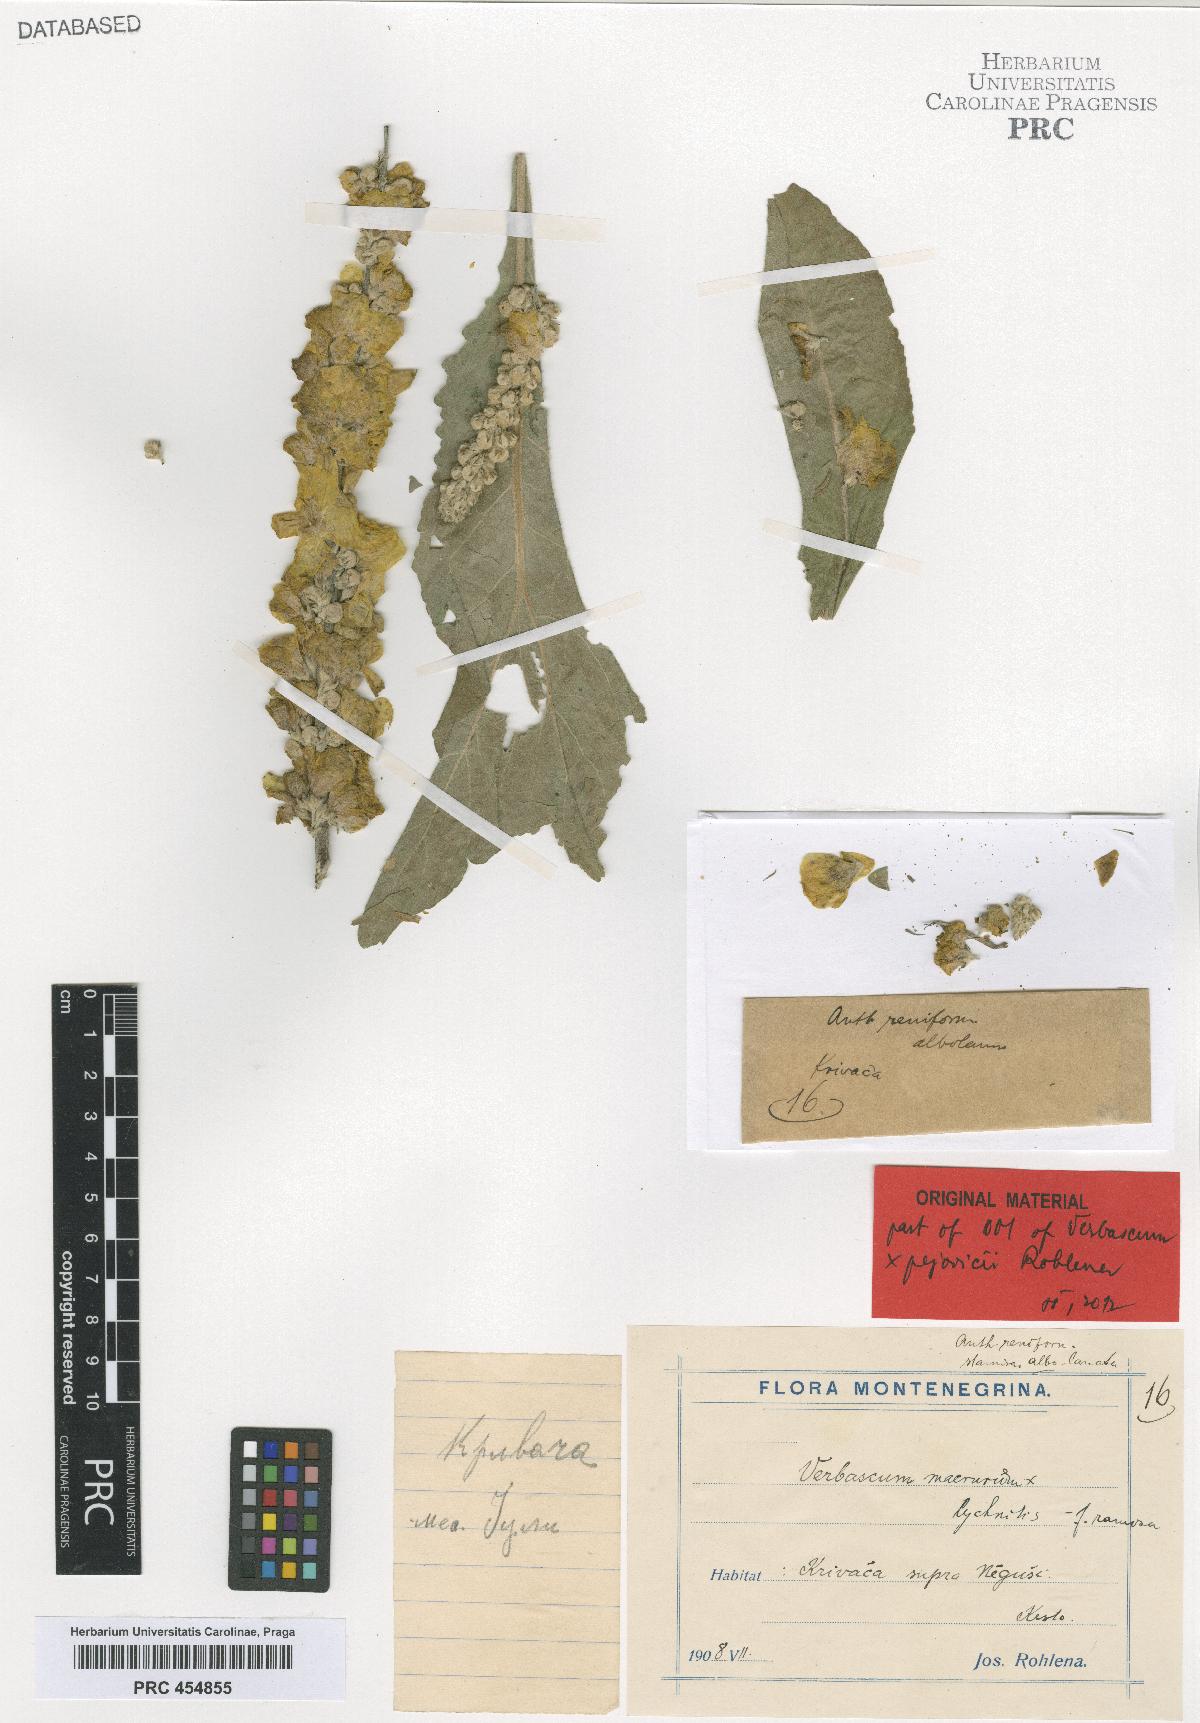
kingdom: Plantae
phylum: Tracheophyta
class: Magnoliopsida
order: Lamiales
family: Scrophulariaceae
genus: Verbascum
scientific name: Verbascum congestum
